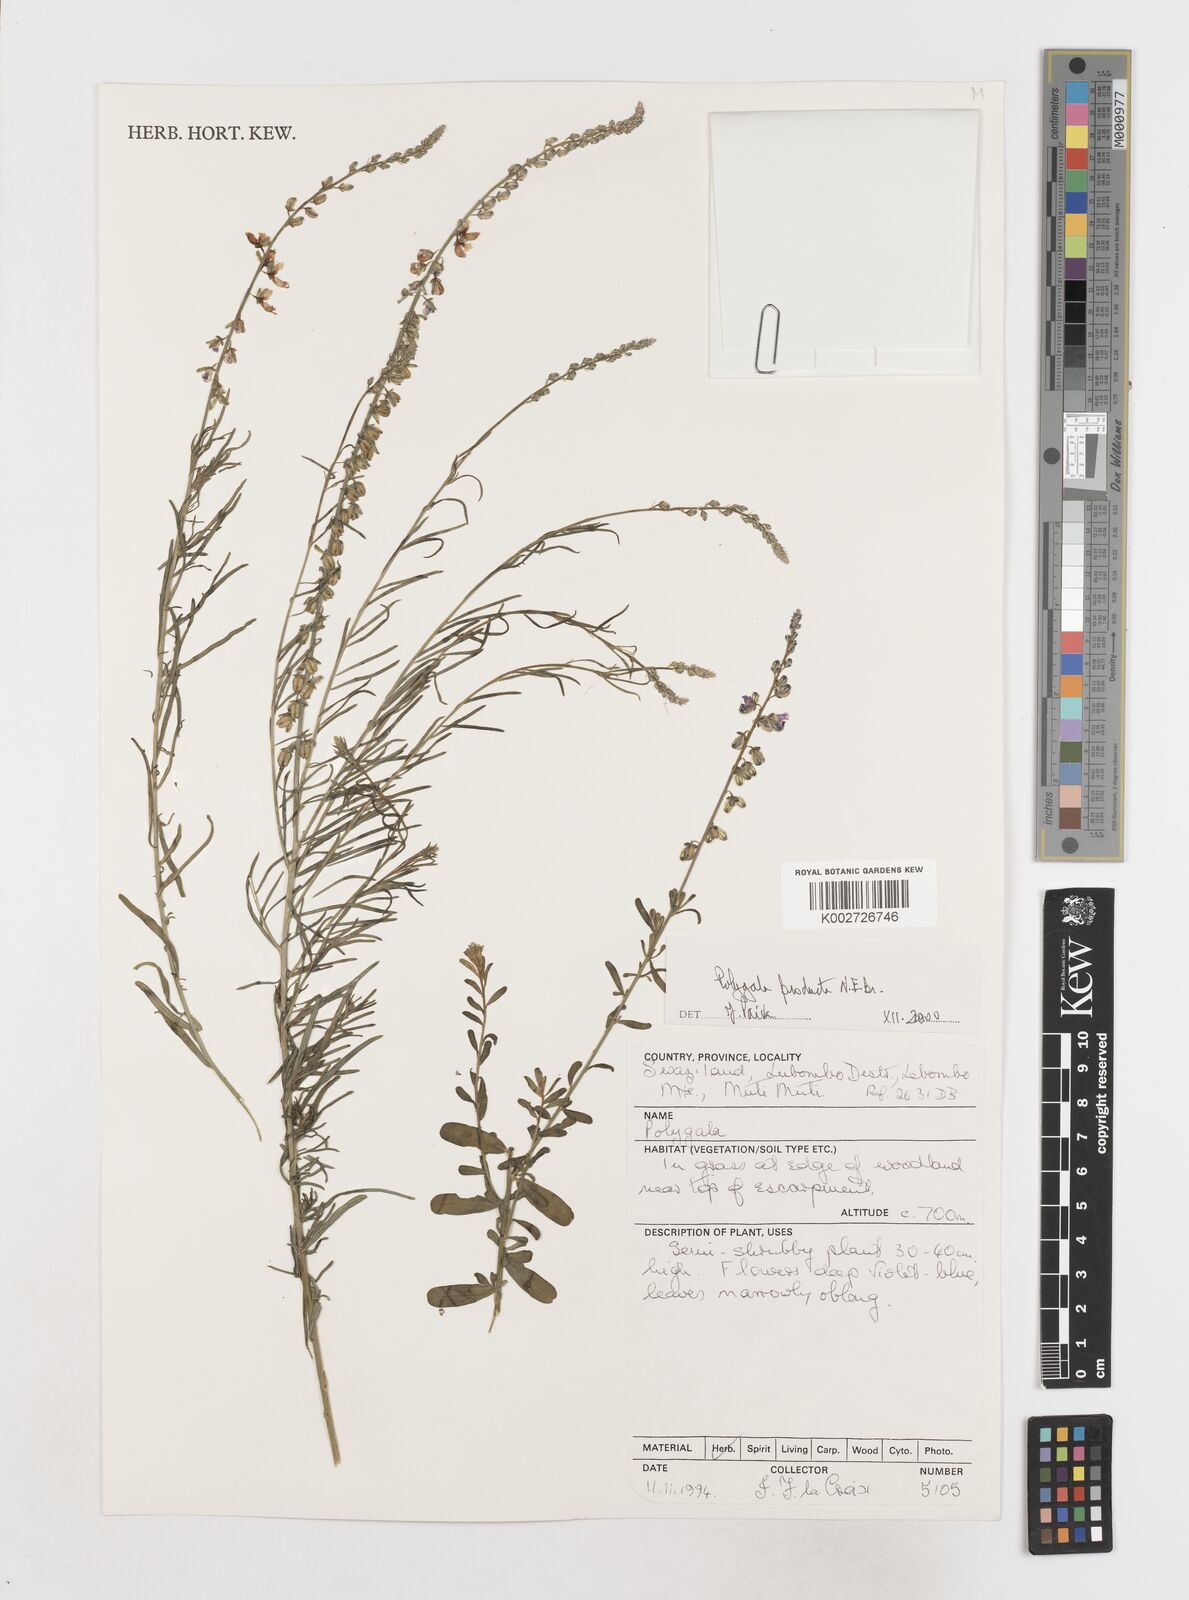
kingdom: Plantae
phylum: Tracheophyta
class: Magnoliopsida
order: Fabales
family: Polygalaceae
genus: Polygala
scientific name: Polygala producta
